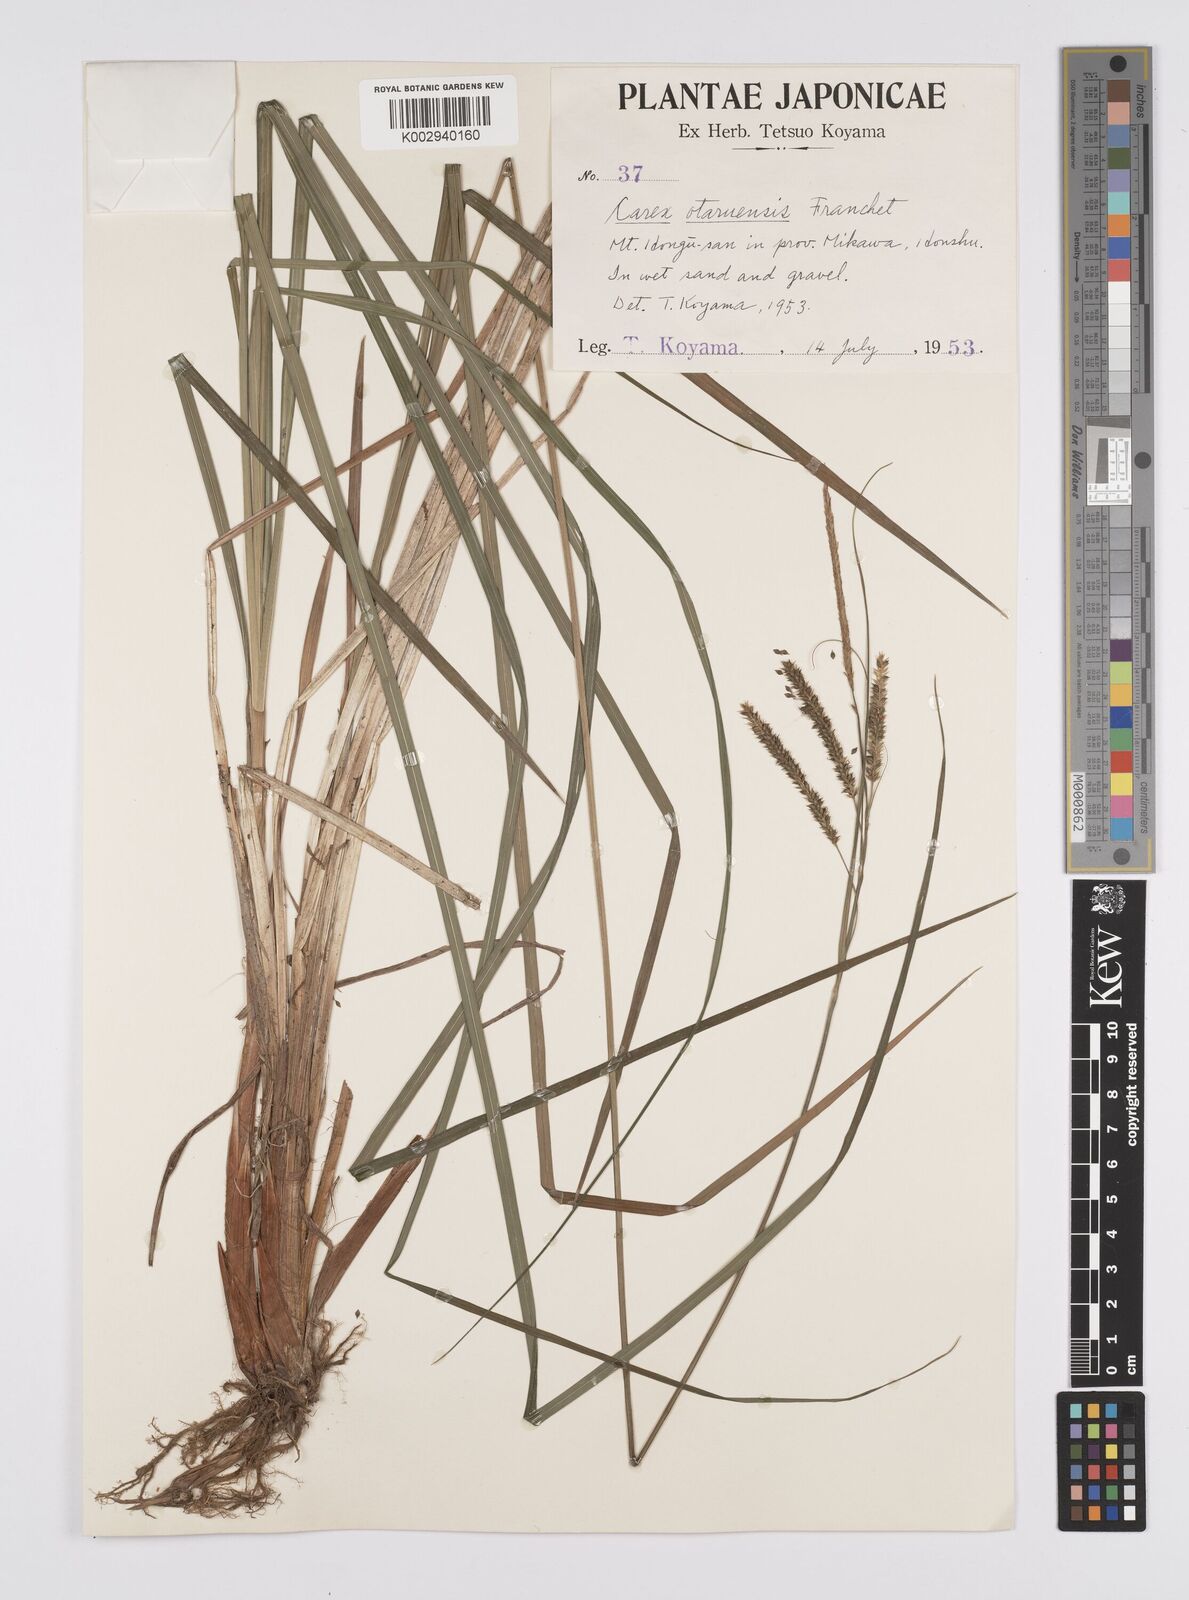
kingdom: Plantae
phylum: Tracheophyta
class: Liliopsida
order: Poales
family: Cyperaceae
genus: Carex
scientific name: Carex otaruensis
